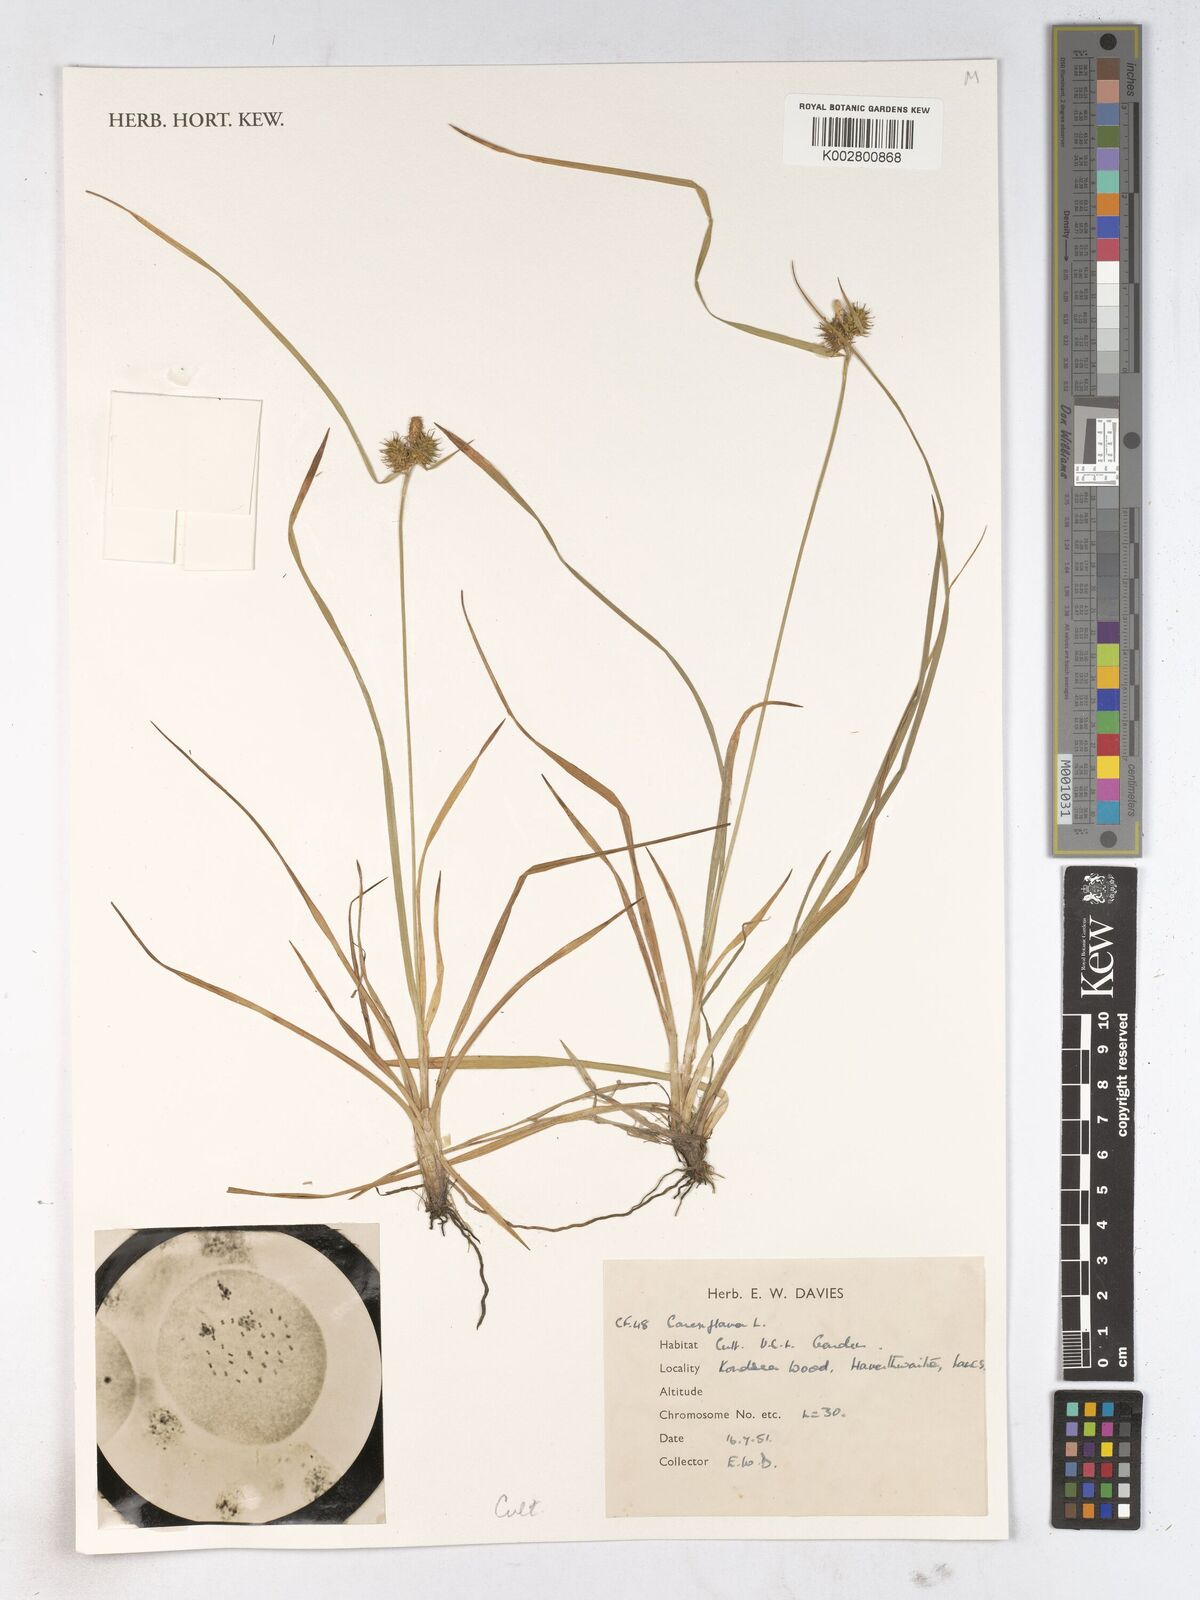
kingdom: Plantae
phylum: Tracheophyta
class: Liliopsida
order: Poales
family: Cyperaceae
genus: Carex
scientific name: Carex montana
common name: Soft-leaved sedge
